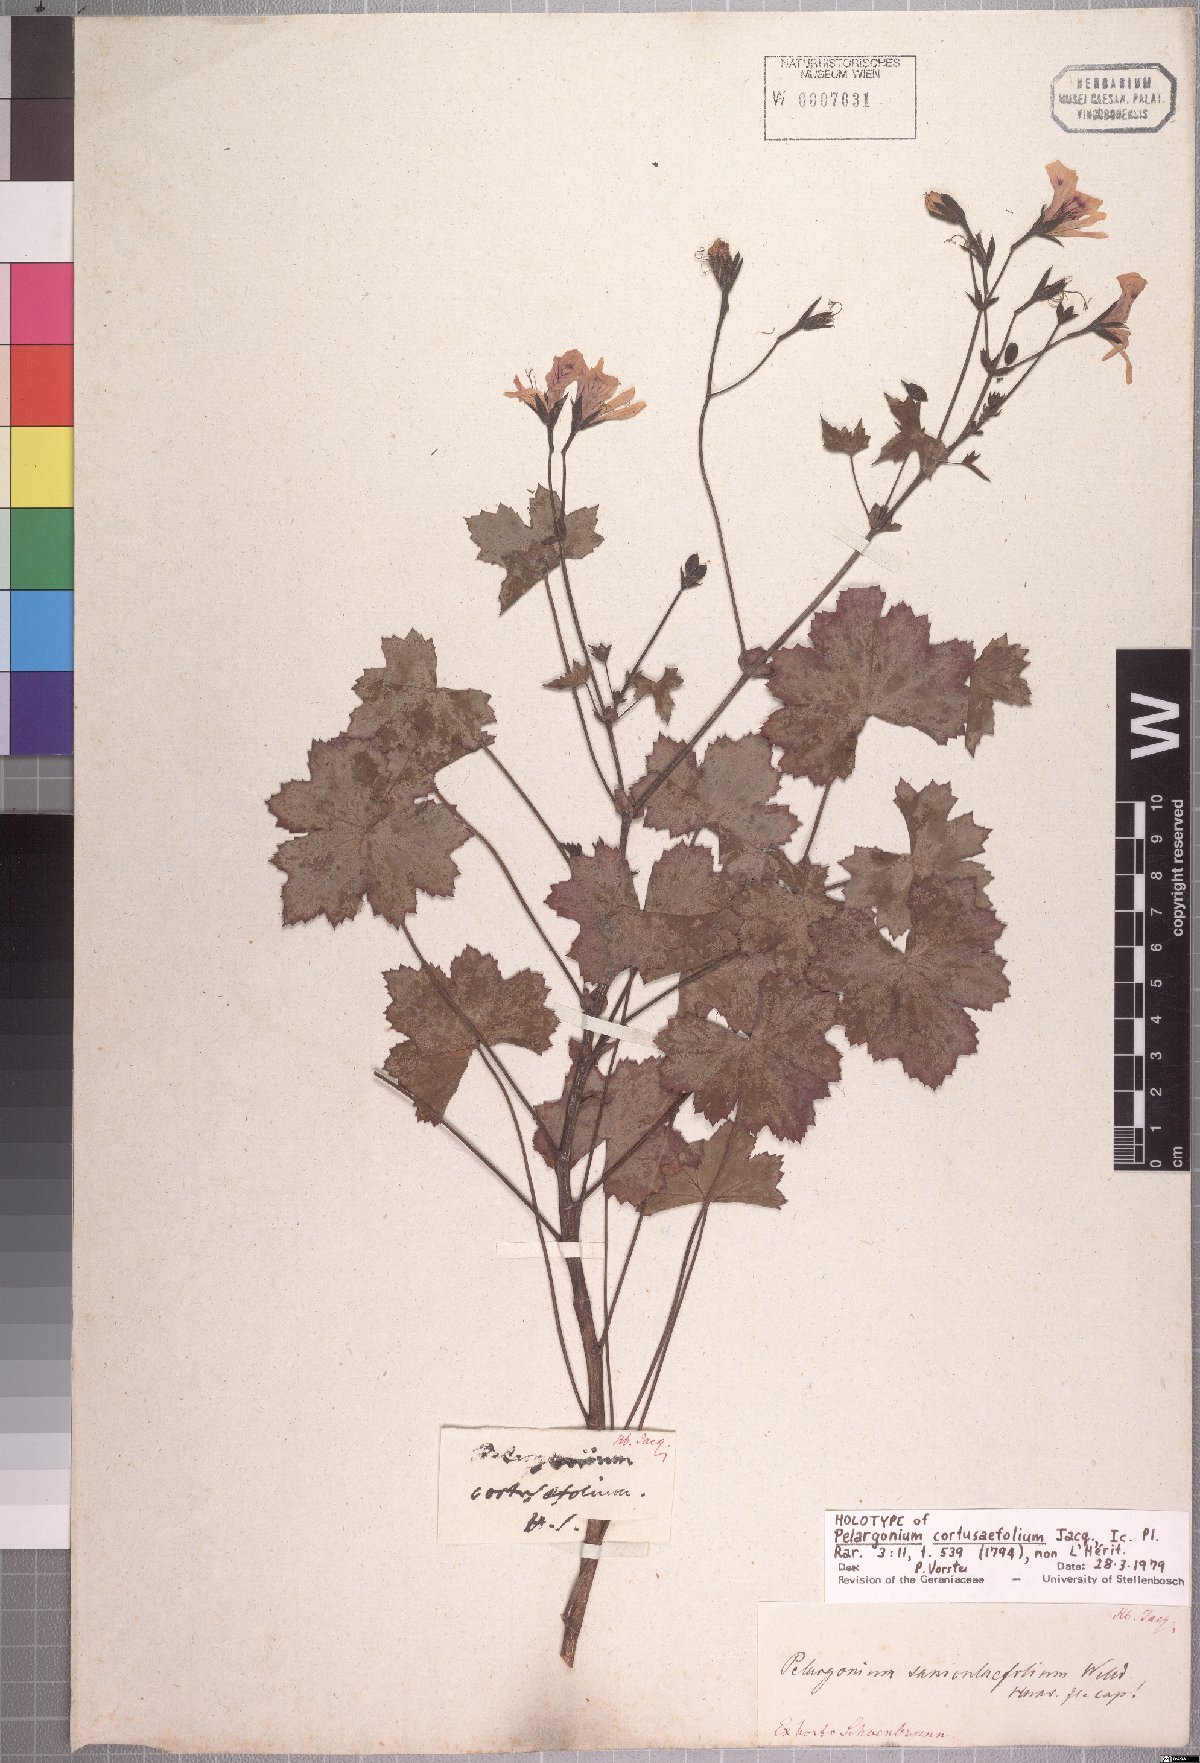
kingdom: Plantae
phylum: Tracheophyta
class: Magnoliopsida
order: Geraniales
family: Geraniaceae
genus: Pelargonium
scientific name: Pelargonium tabulare
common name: Table mountain pelargonium
